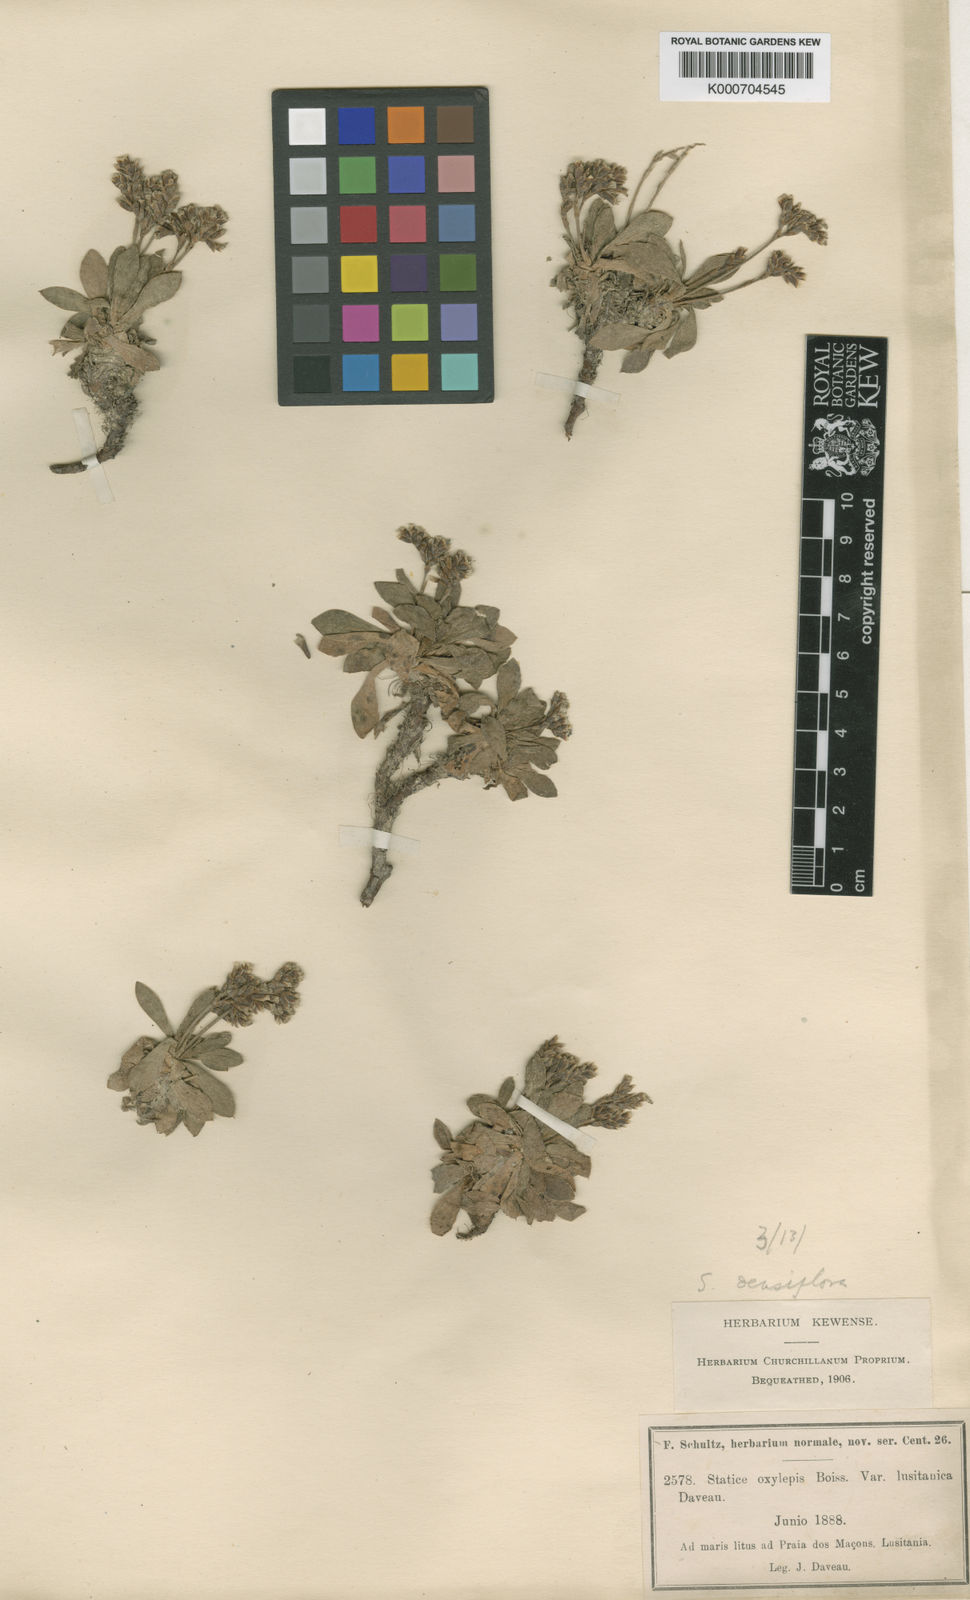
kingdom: Plantae
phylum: Tracheophyta
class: Magnoliopsida
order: Caryophyllales
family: Plumbaginaceae
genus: Limonium
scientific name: Limonium densiflorum
